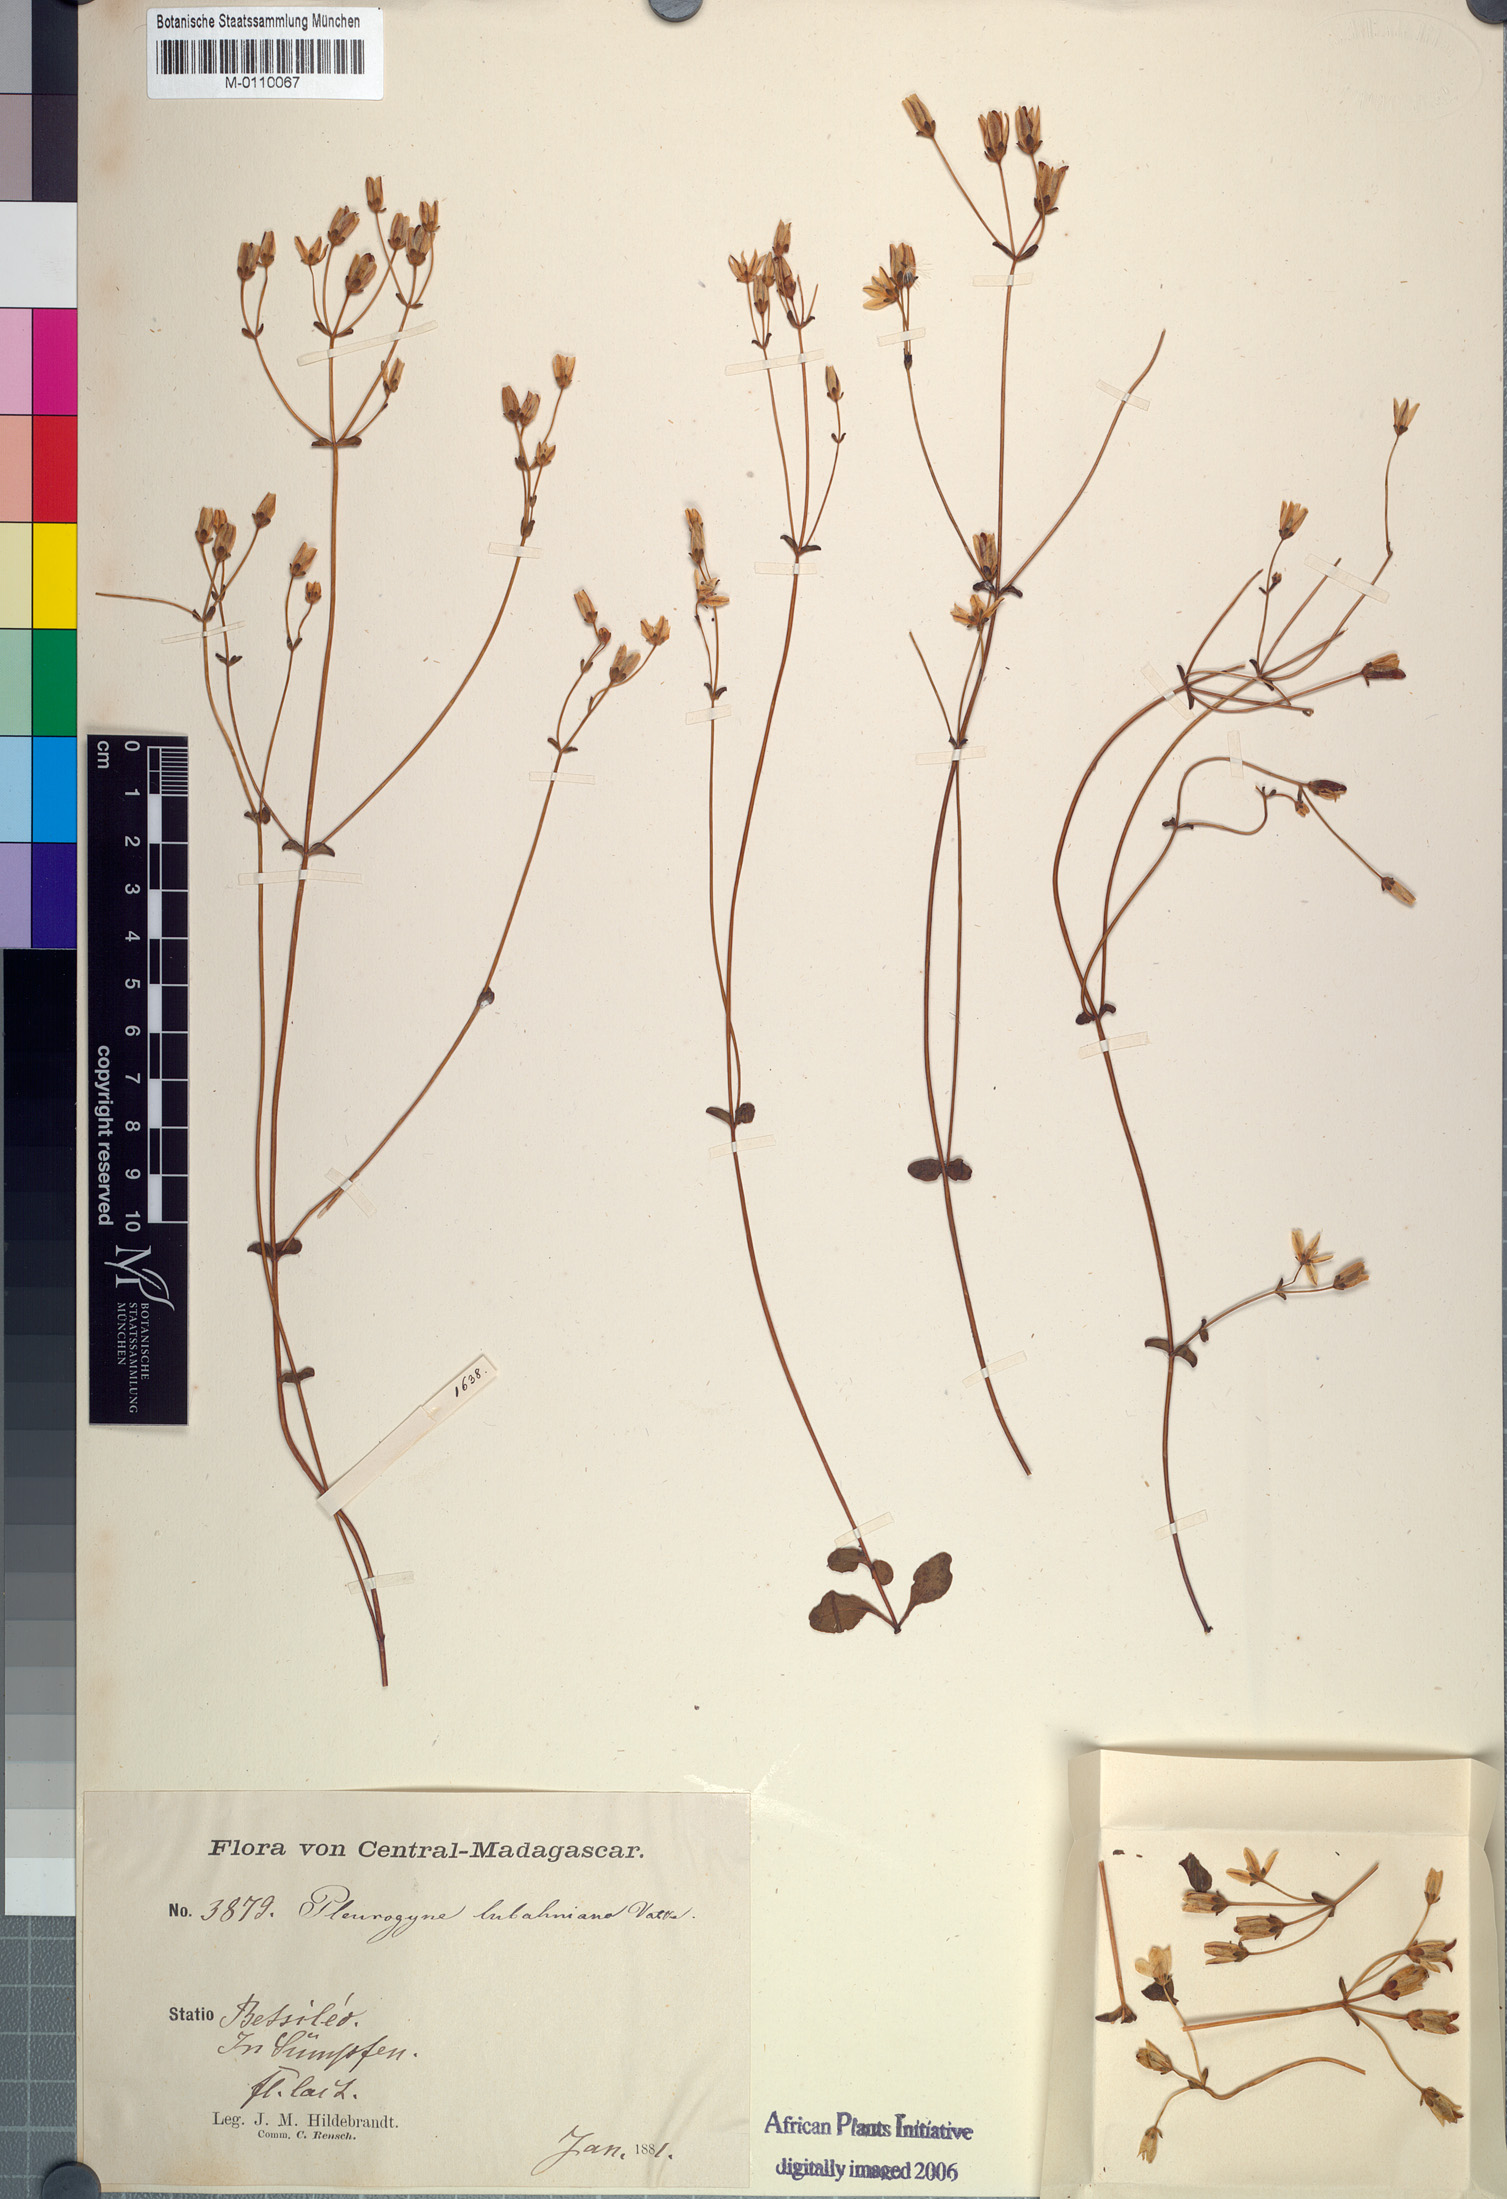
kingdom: Plantae
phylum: Tracheophyta
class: Magnoliopsida
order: Gentianales
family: Gentianaceae
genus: Swertia
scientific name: Swertia rosulata
